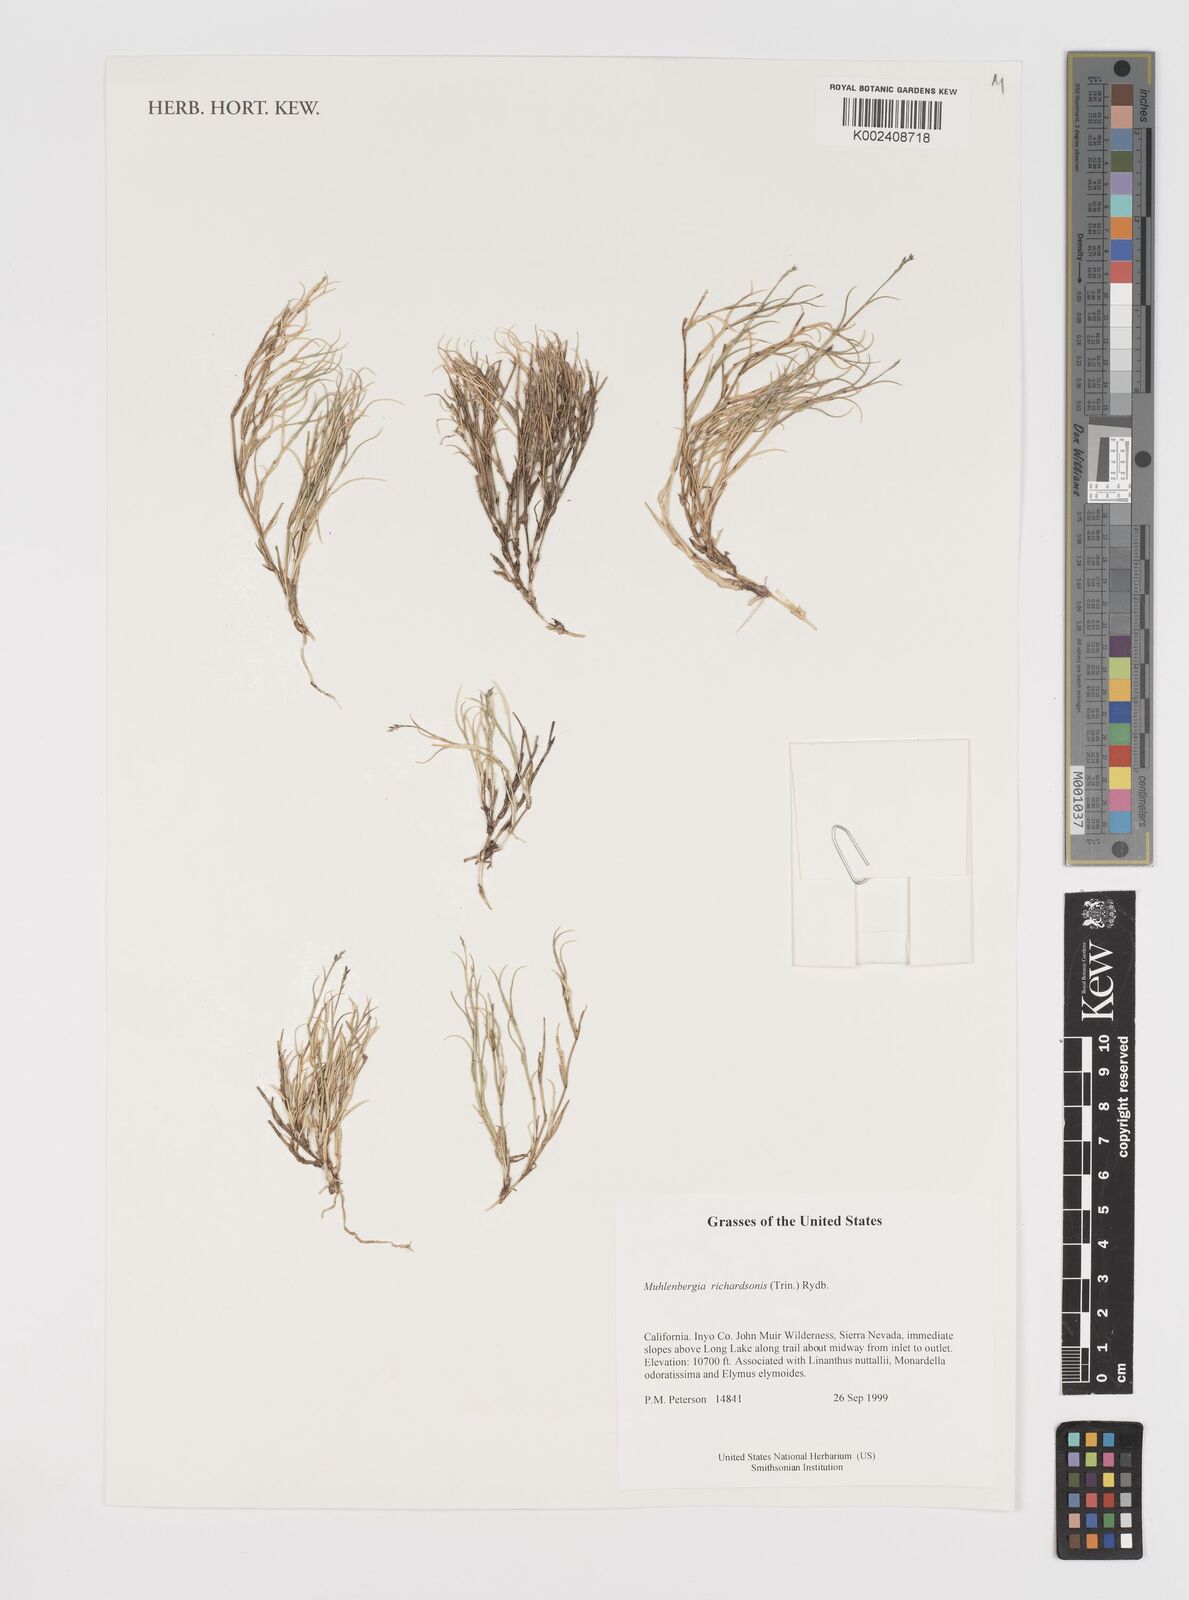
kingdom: Plantae
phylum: Tracheophyta
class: Liliopsida
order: Poales
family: Poaceae
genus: Muhlenbergia
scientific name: Muhlenbergia richardsonis
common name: Mat muhly
